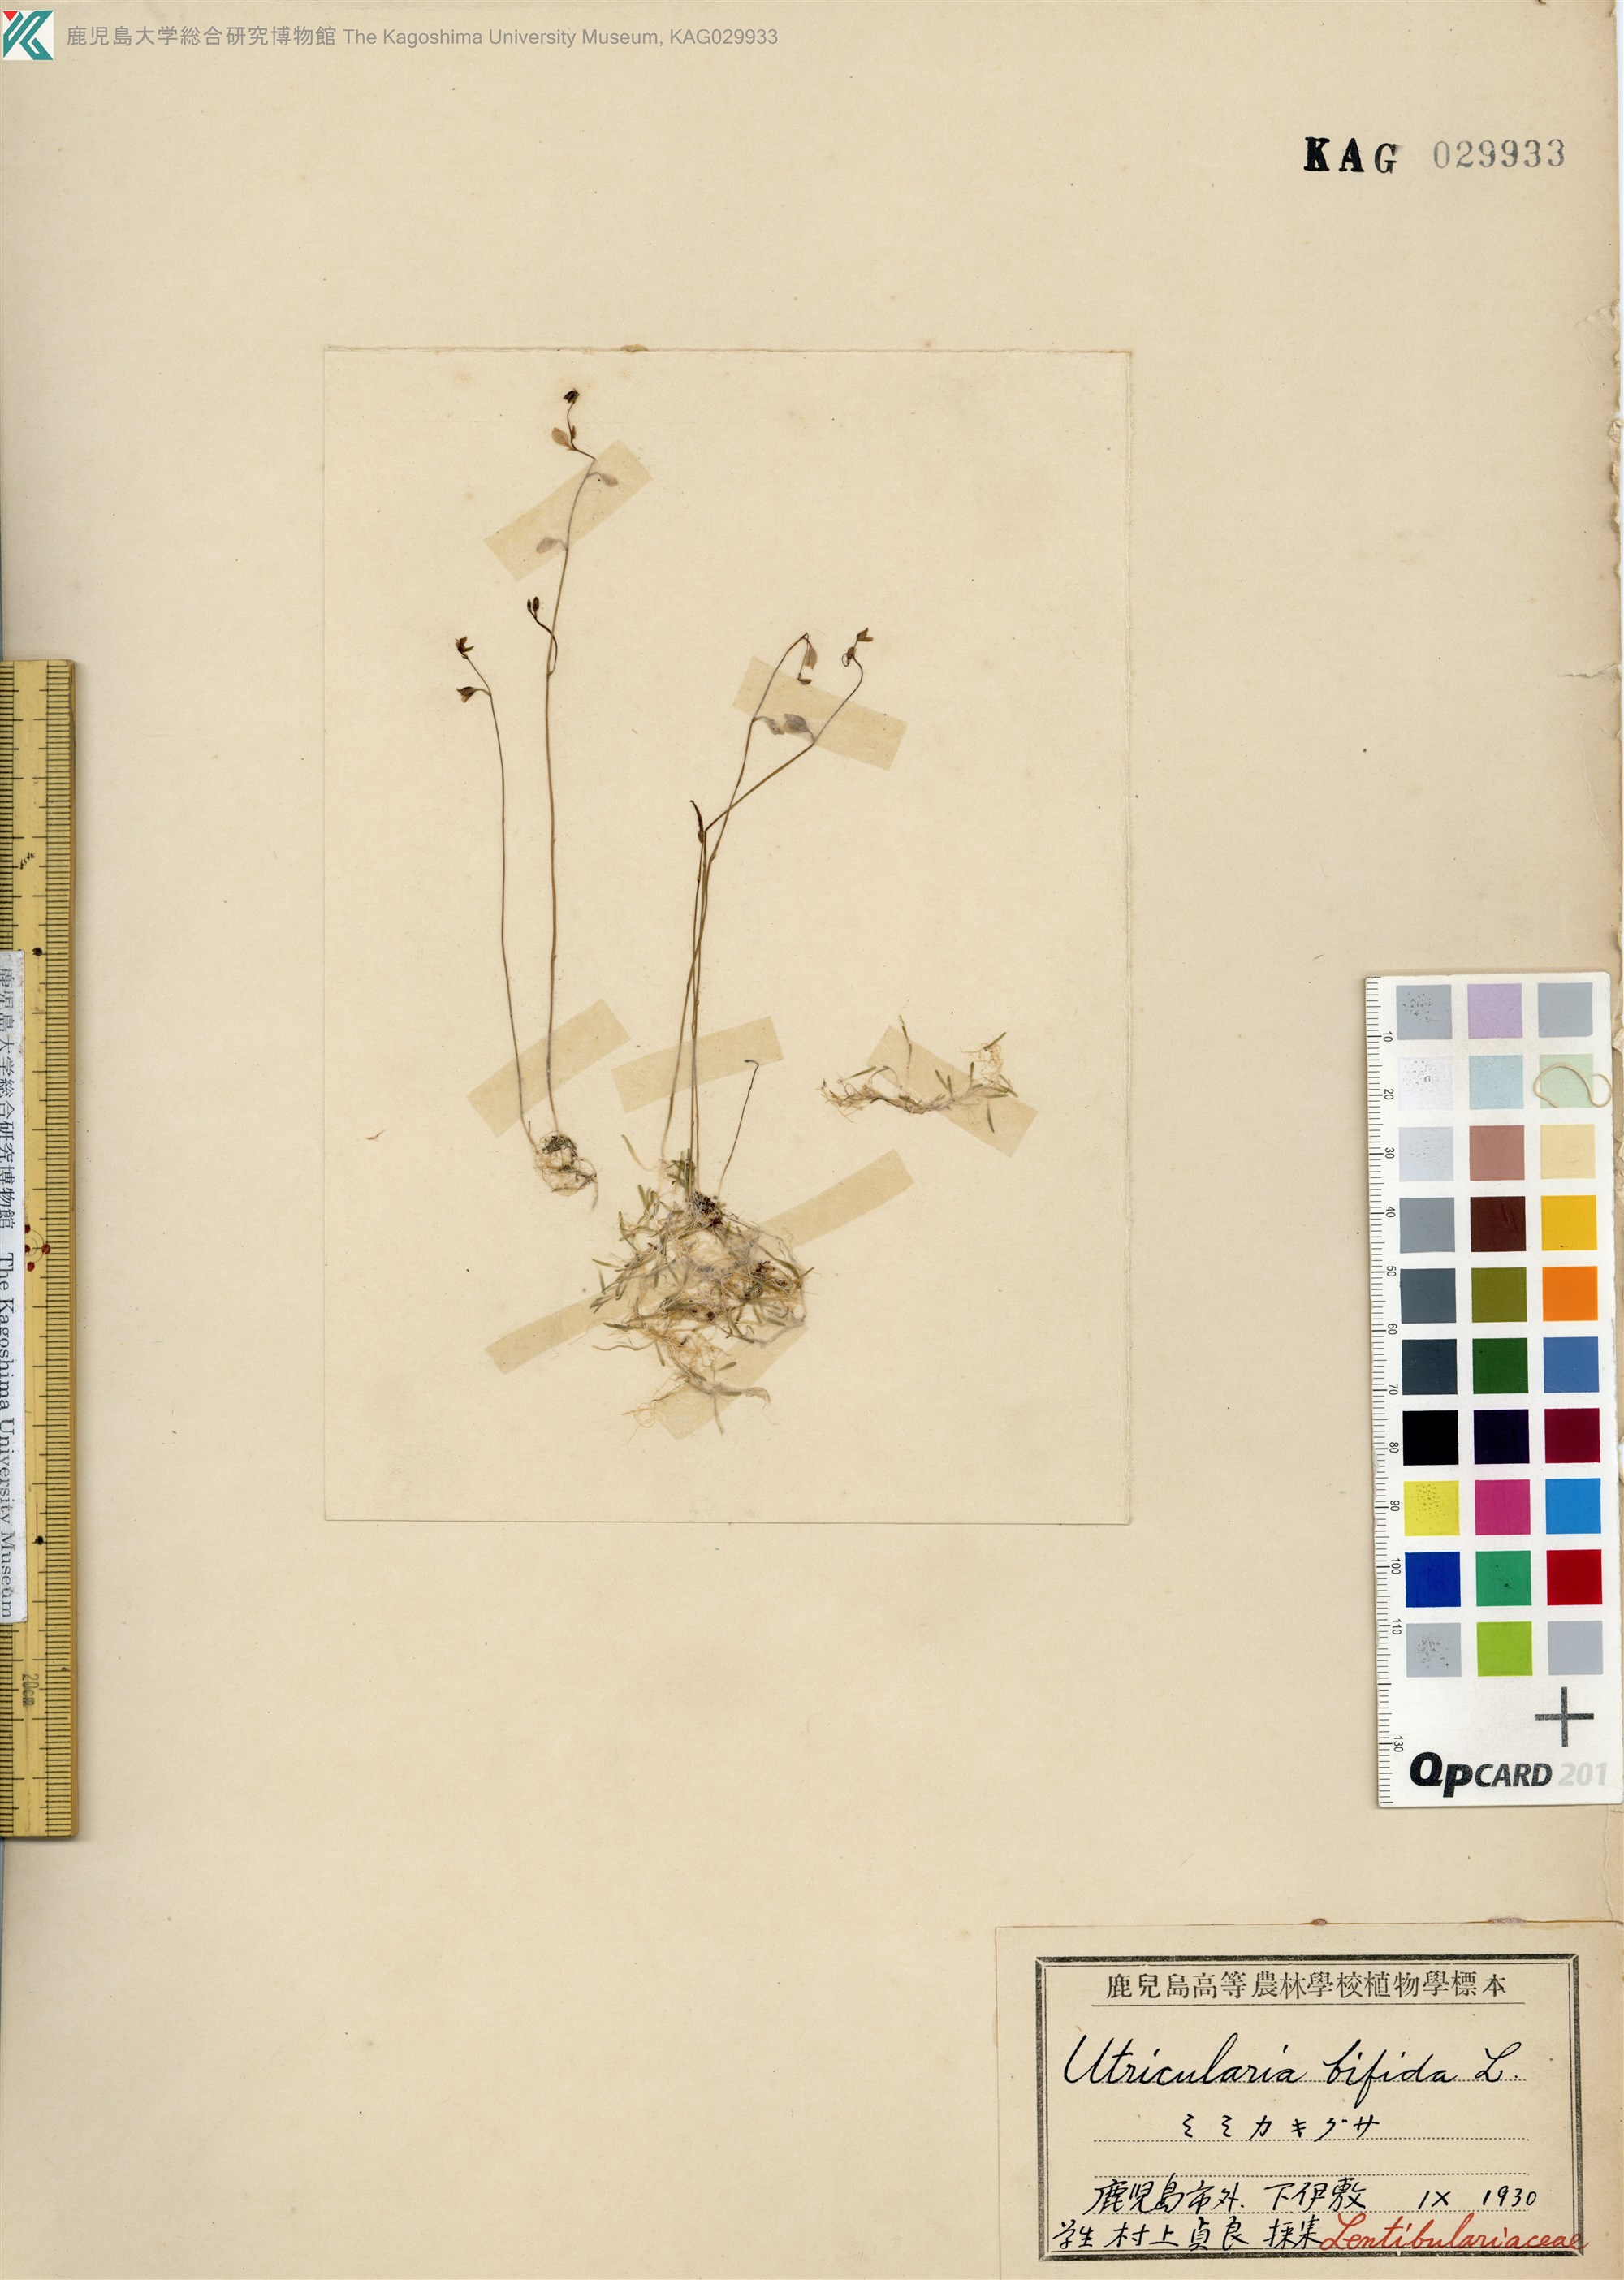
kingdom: Plantae
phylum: Tracheophyta
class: Magnoliopsida
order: Lamiales
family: Lentibulariaceae
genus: Utricularia
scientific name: Utricularia bifida
